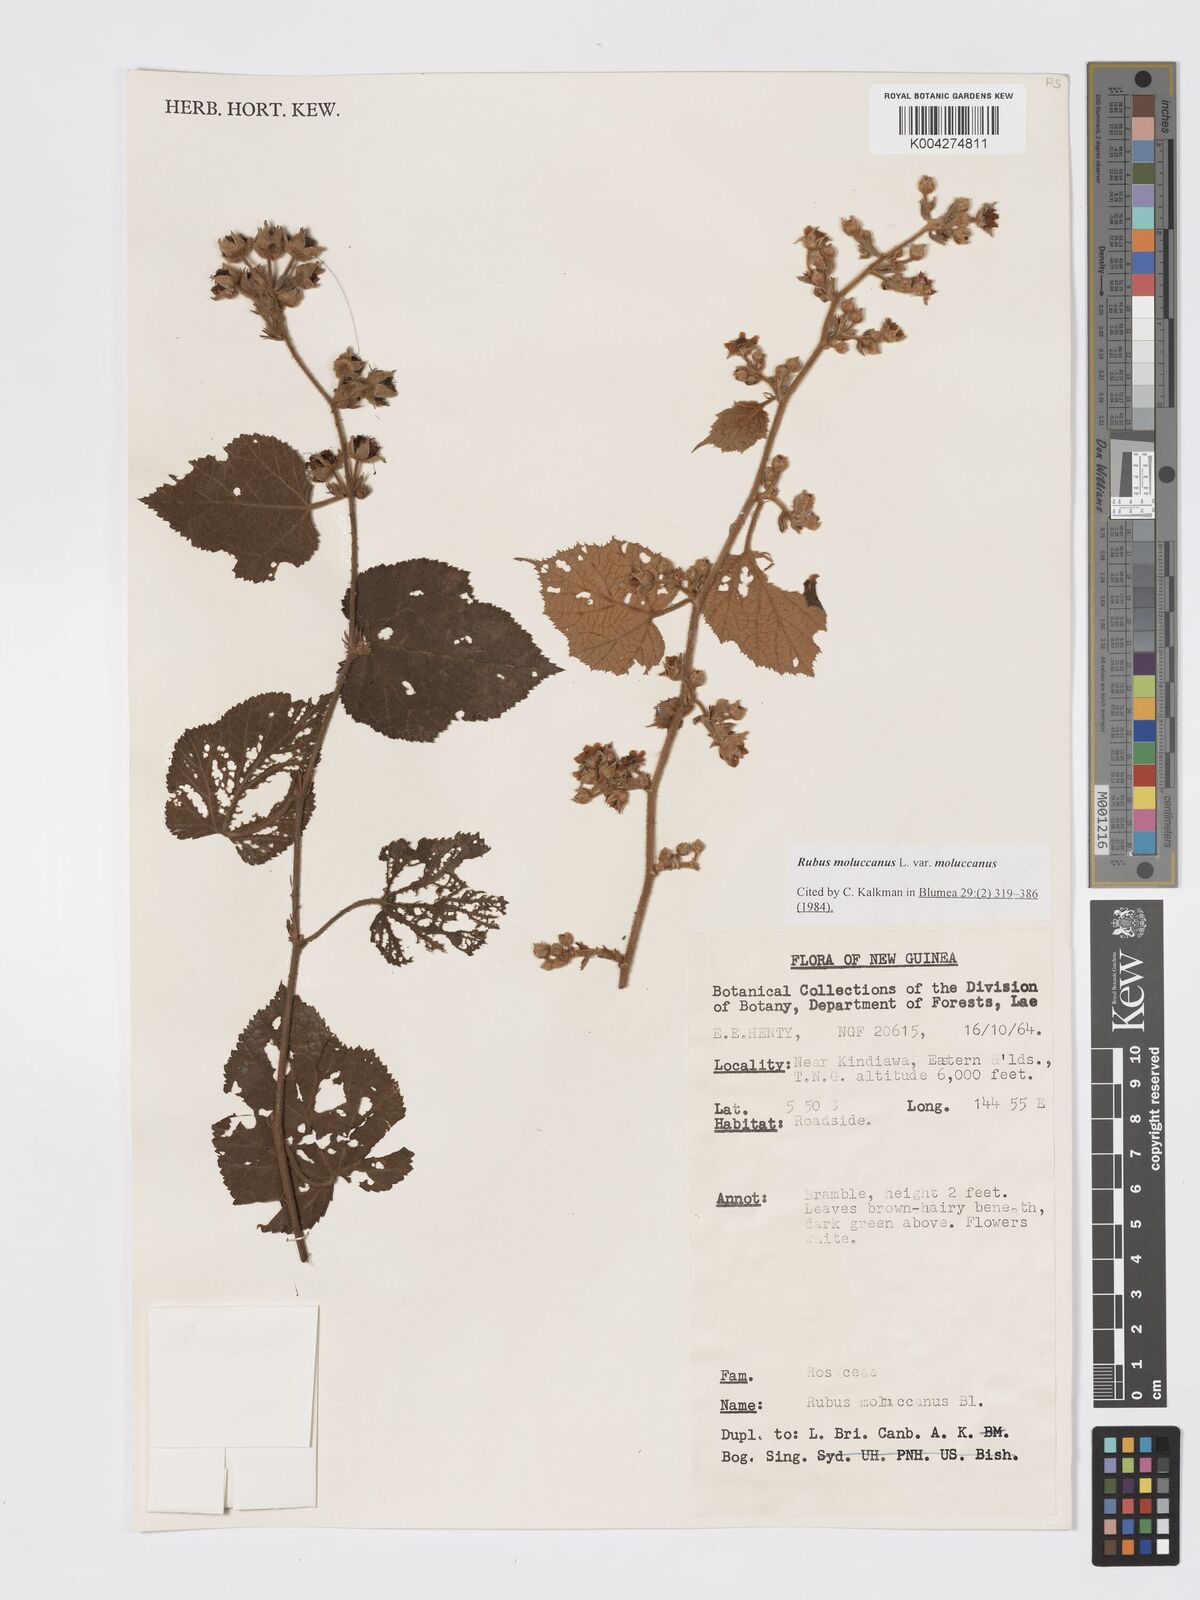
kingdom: Plantae
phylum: Tracheophyta
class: Magnoliopsida
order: Rosales
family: Rosaceae
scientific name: Rosaceae
